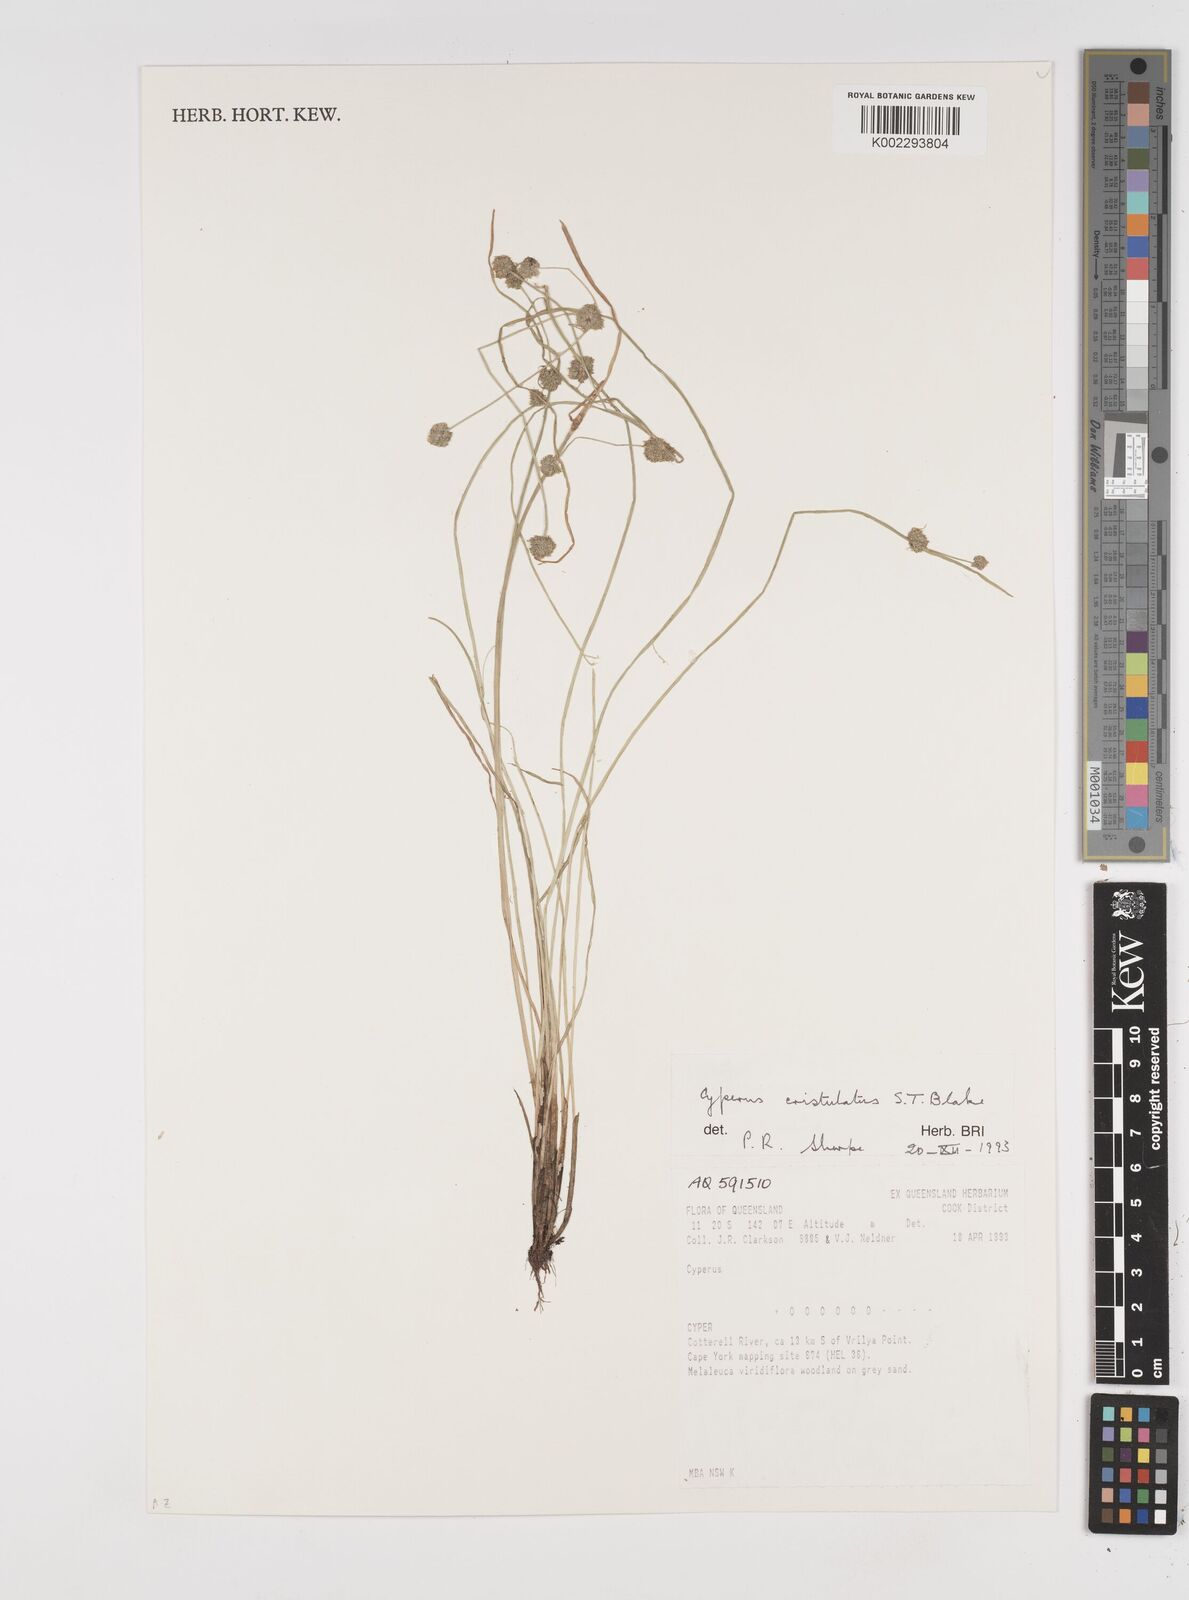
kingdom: Plantae
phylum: Tracheophyta
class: Liliopsida
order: Poales
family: Cyperaceae
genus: Cyperus
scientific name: Cyperus cristulatus
